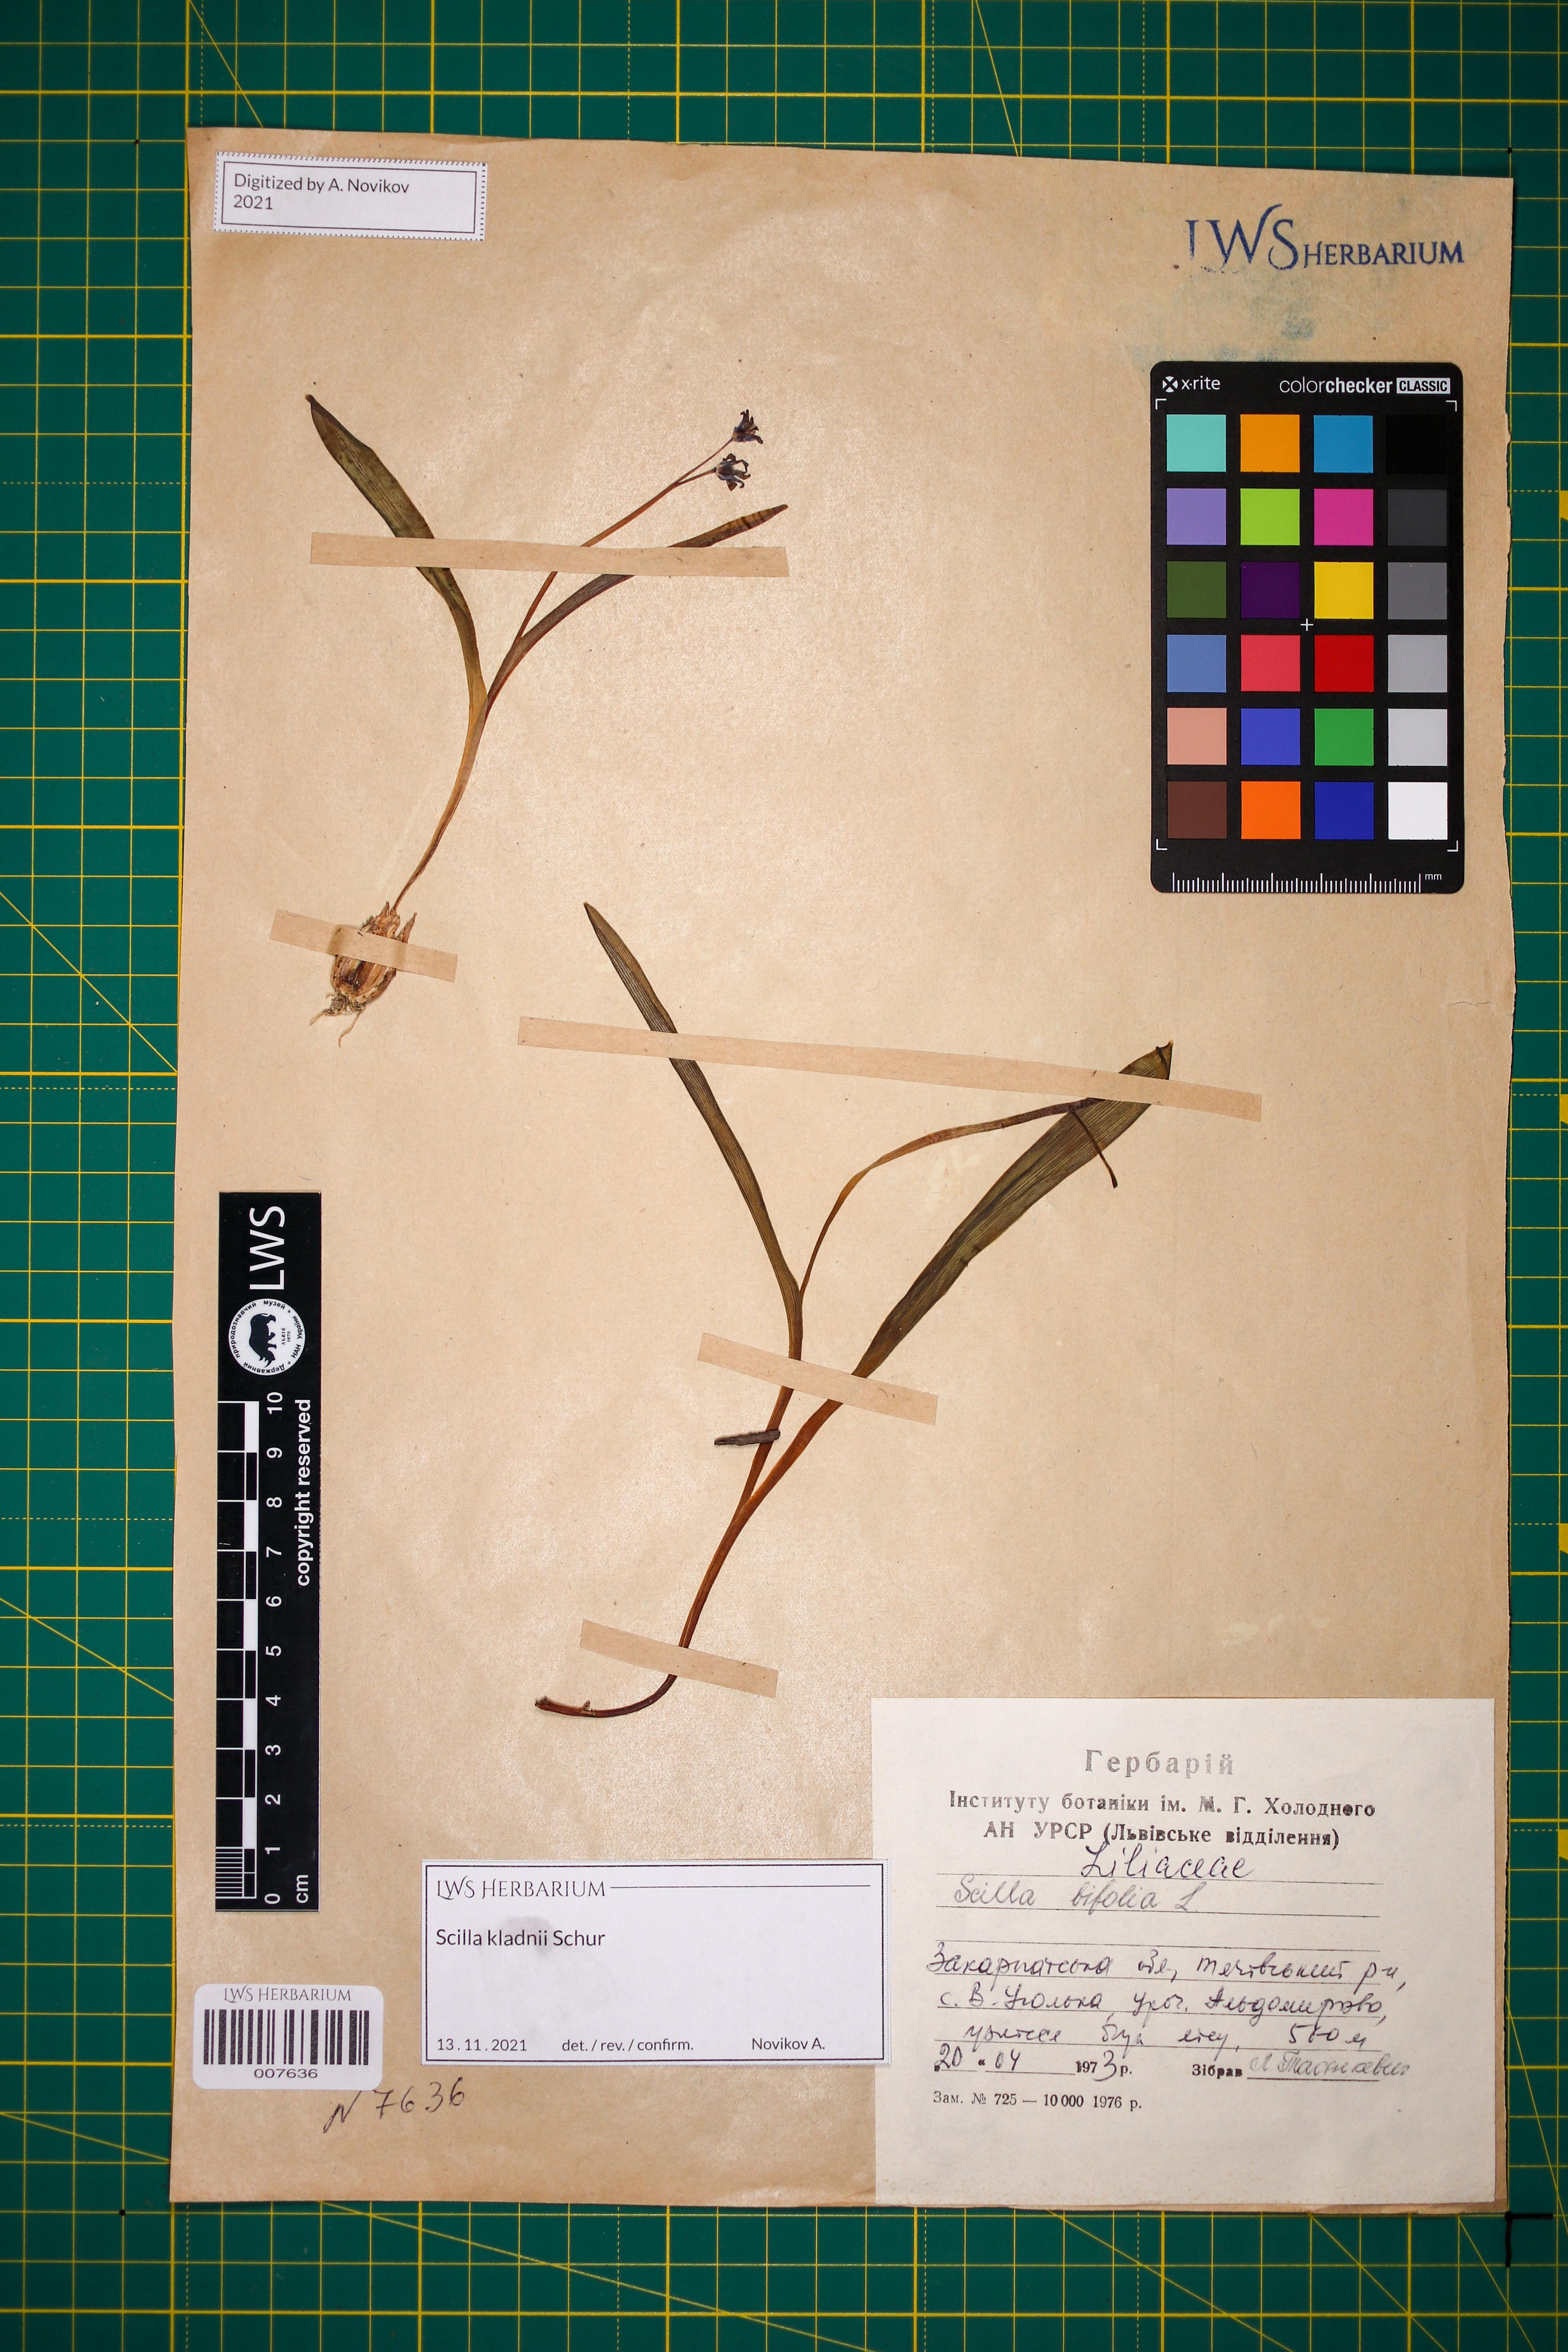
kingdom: Plantae
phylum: Tracheophyta
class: Liliopsida
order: Asparagales
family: Asparagaceae
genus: Scilla
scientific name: Scilla kladnii
